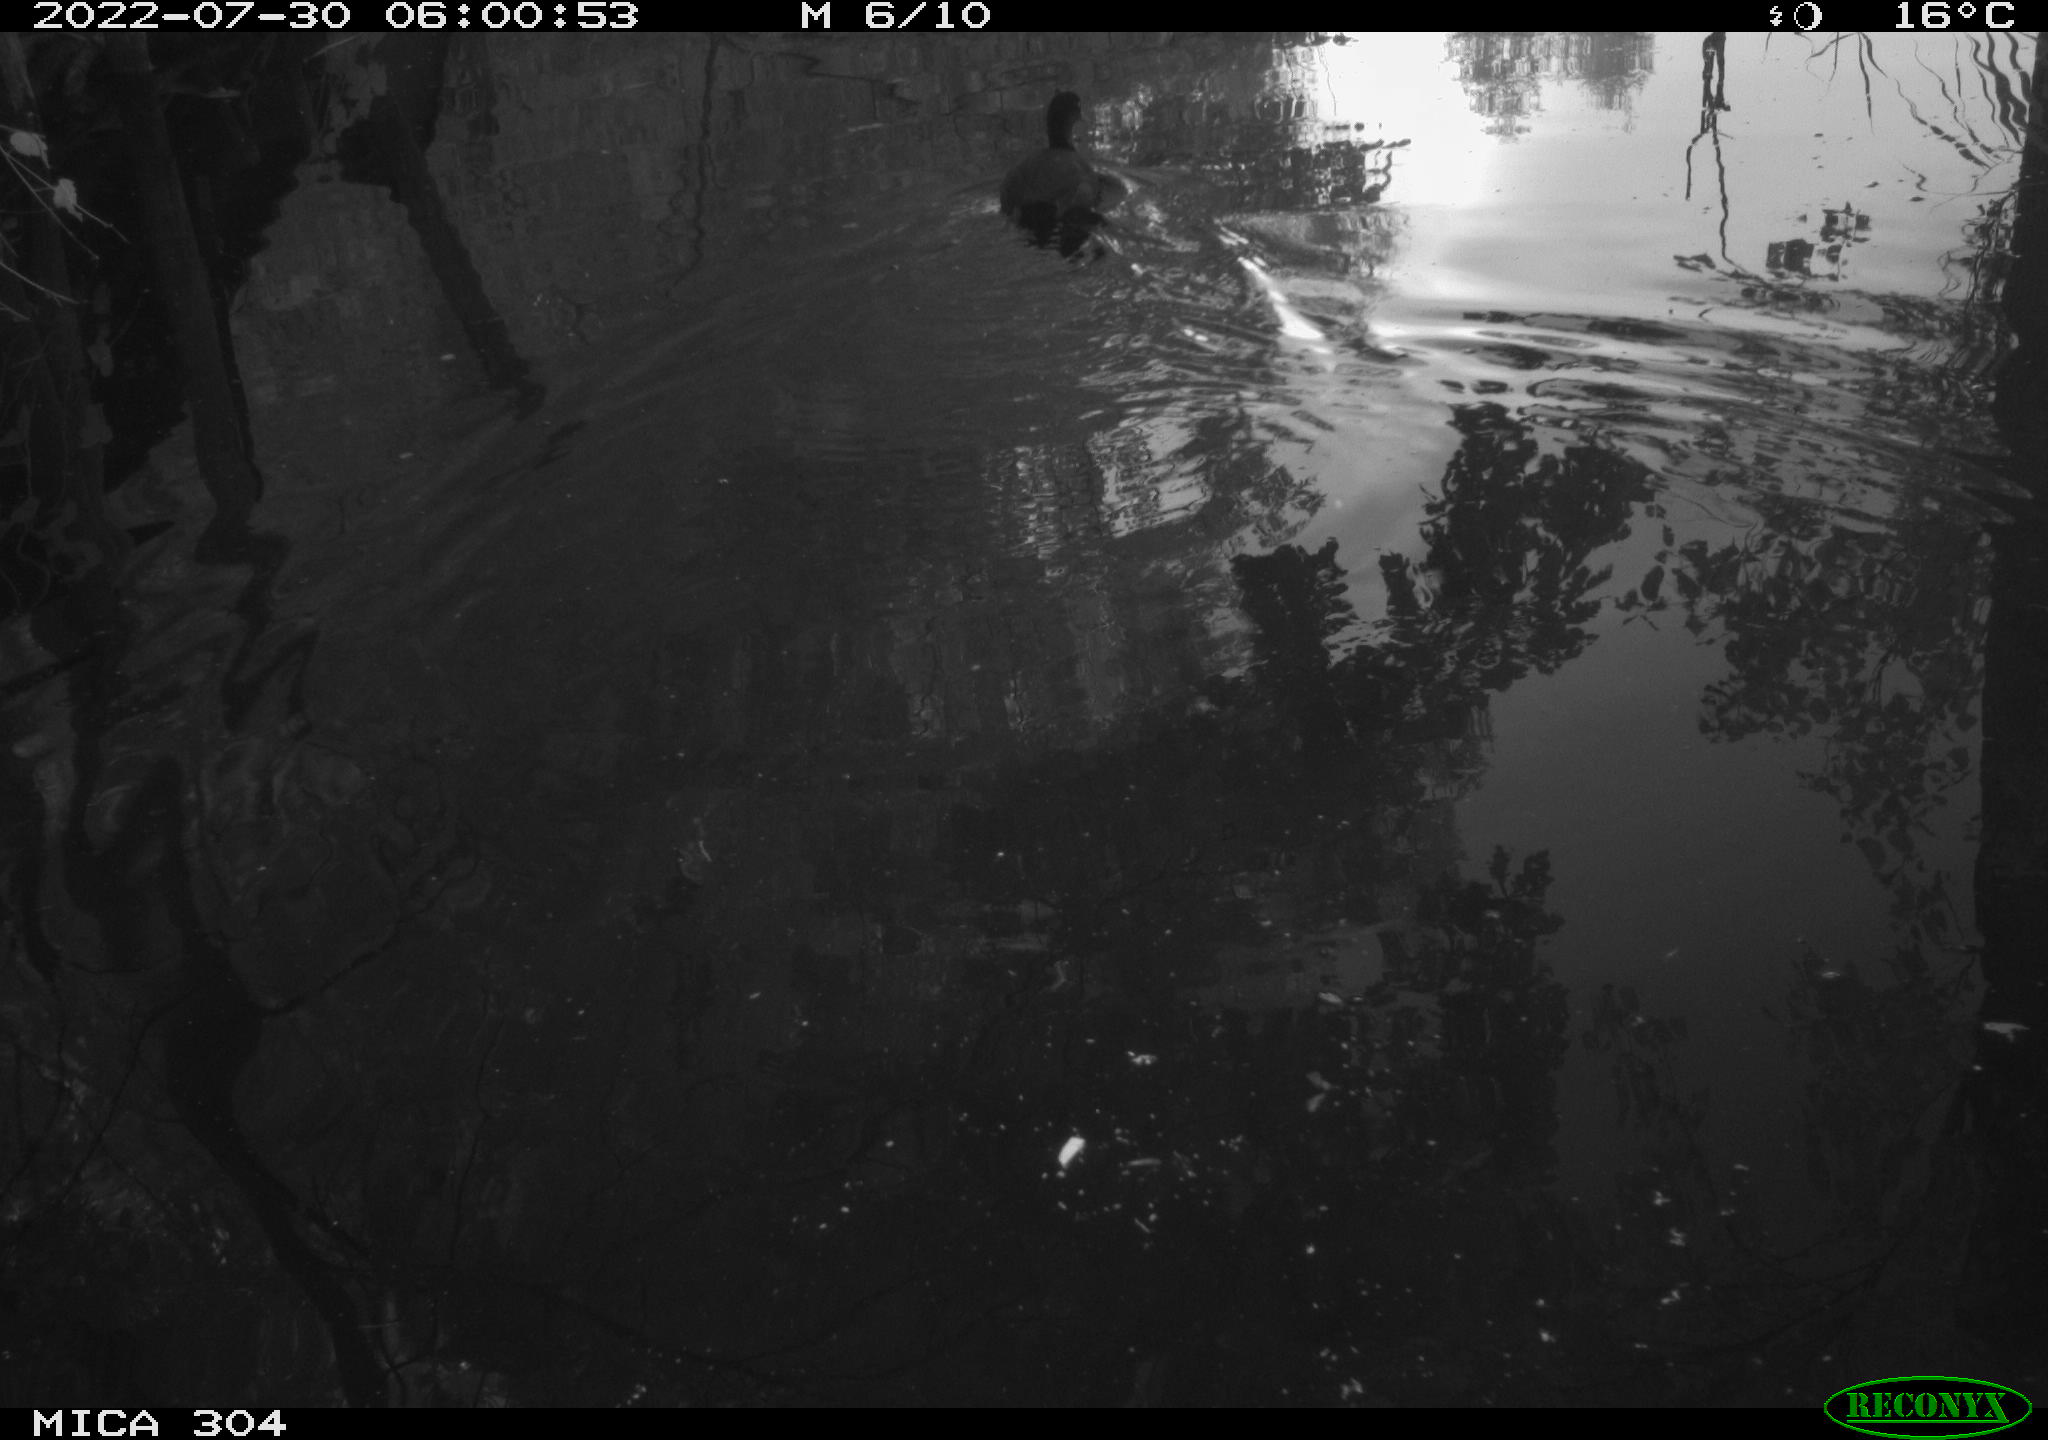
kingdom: Animalia
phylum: Chordata
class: Aves
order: Gruiformes
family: Rallidae
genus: Fulica
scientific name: Fulica atra
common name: Eurasian coot
